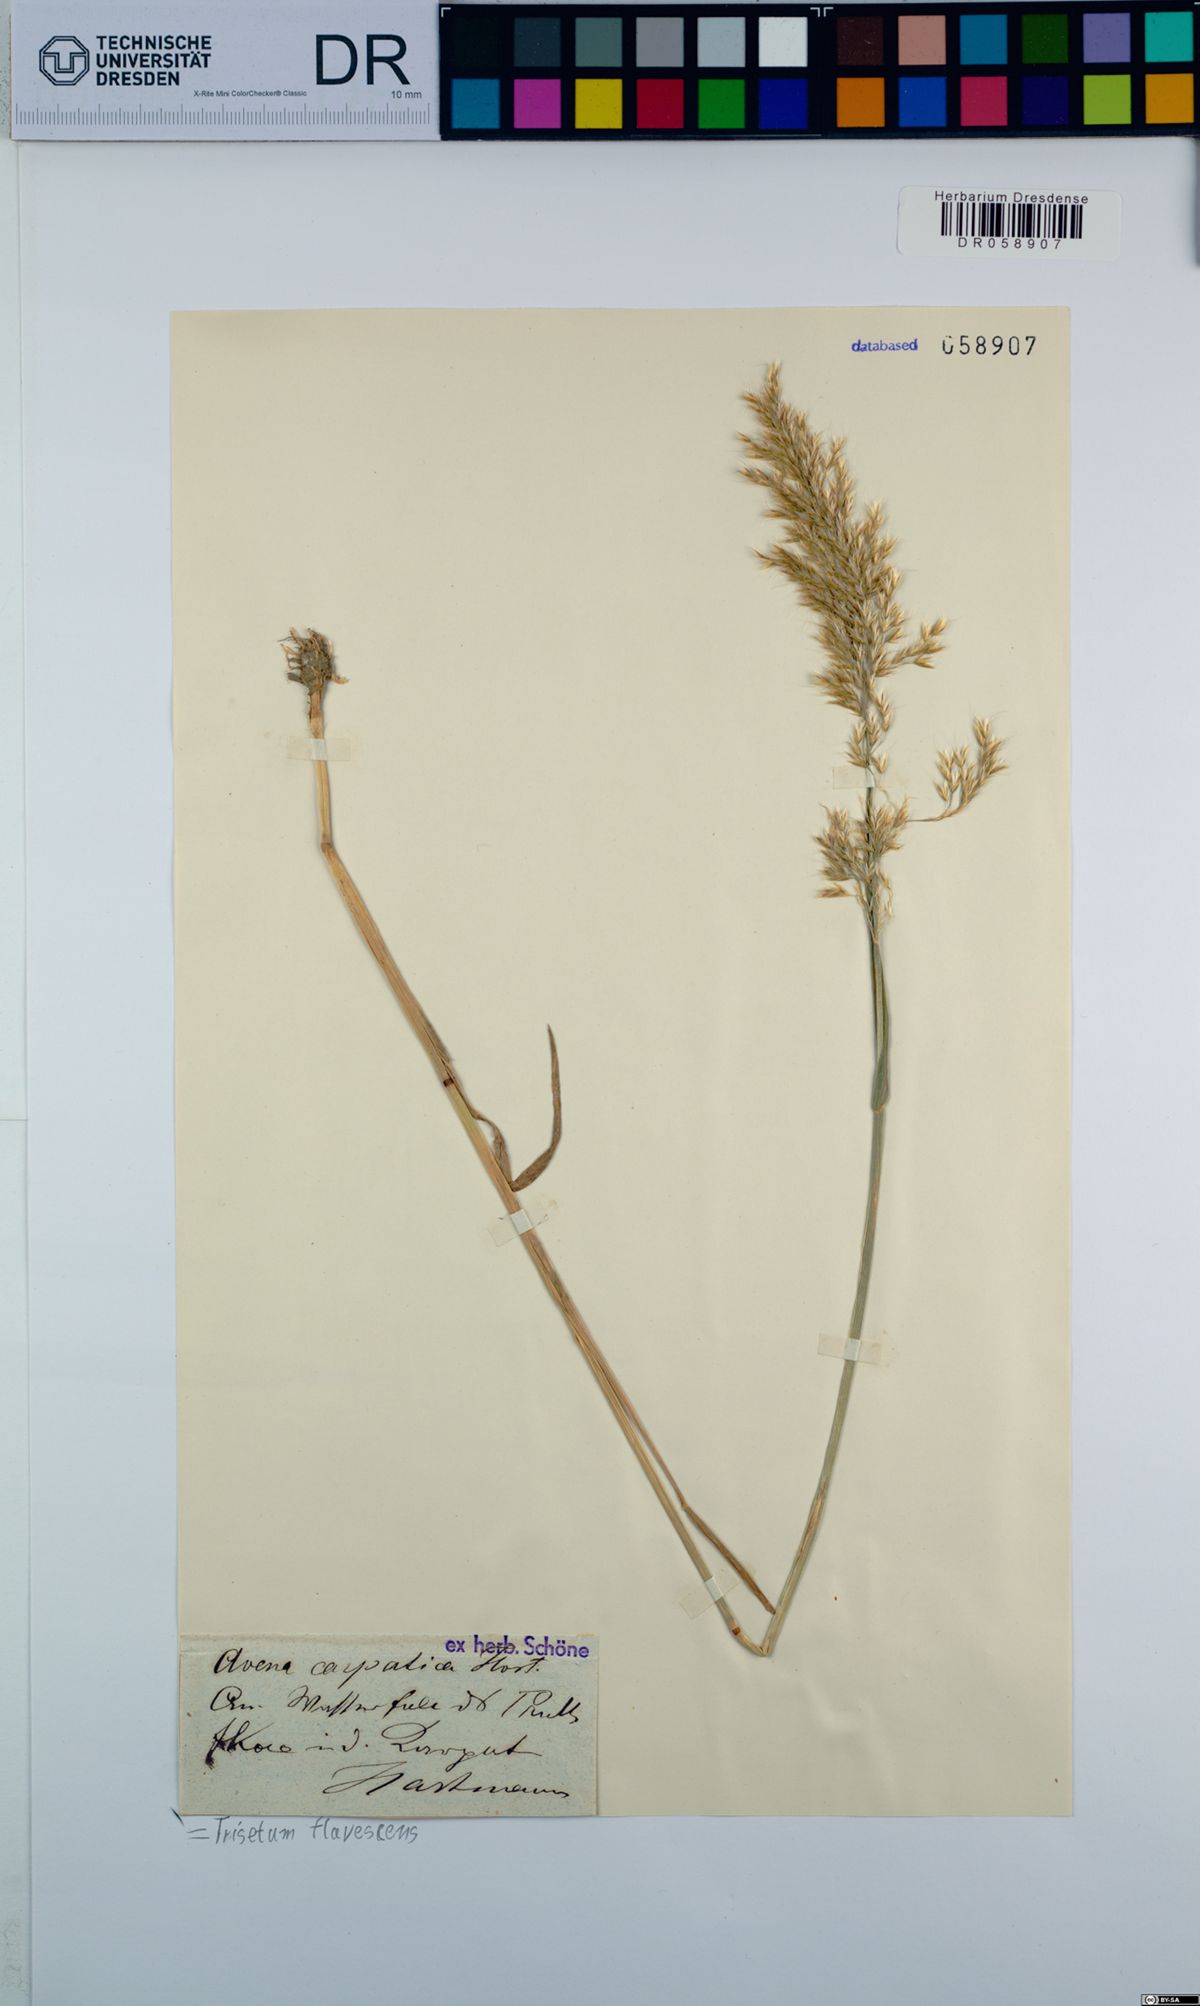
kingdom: Plantae
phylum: Tracheophyta
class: Liliopsida
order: Poales
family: Poaceae
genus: Trisetum
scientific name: Trisetum flavescens
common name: Yellow oat-grass
